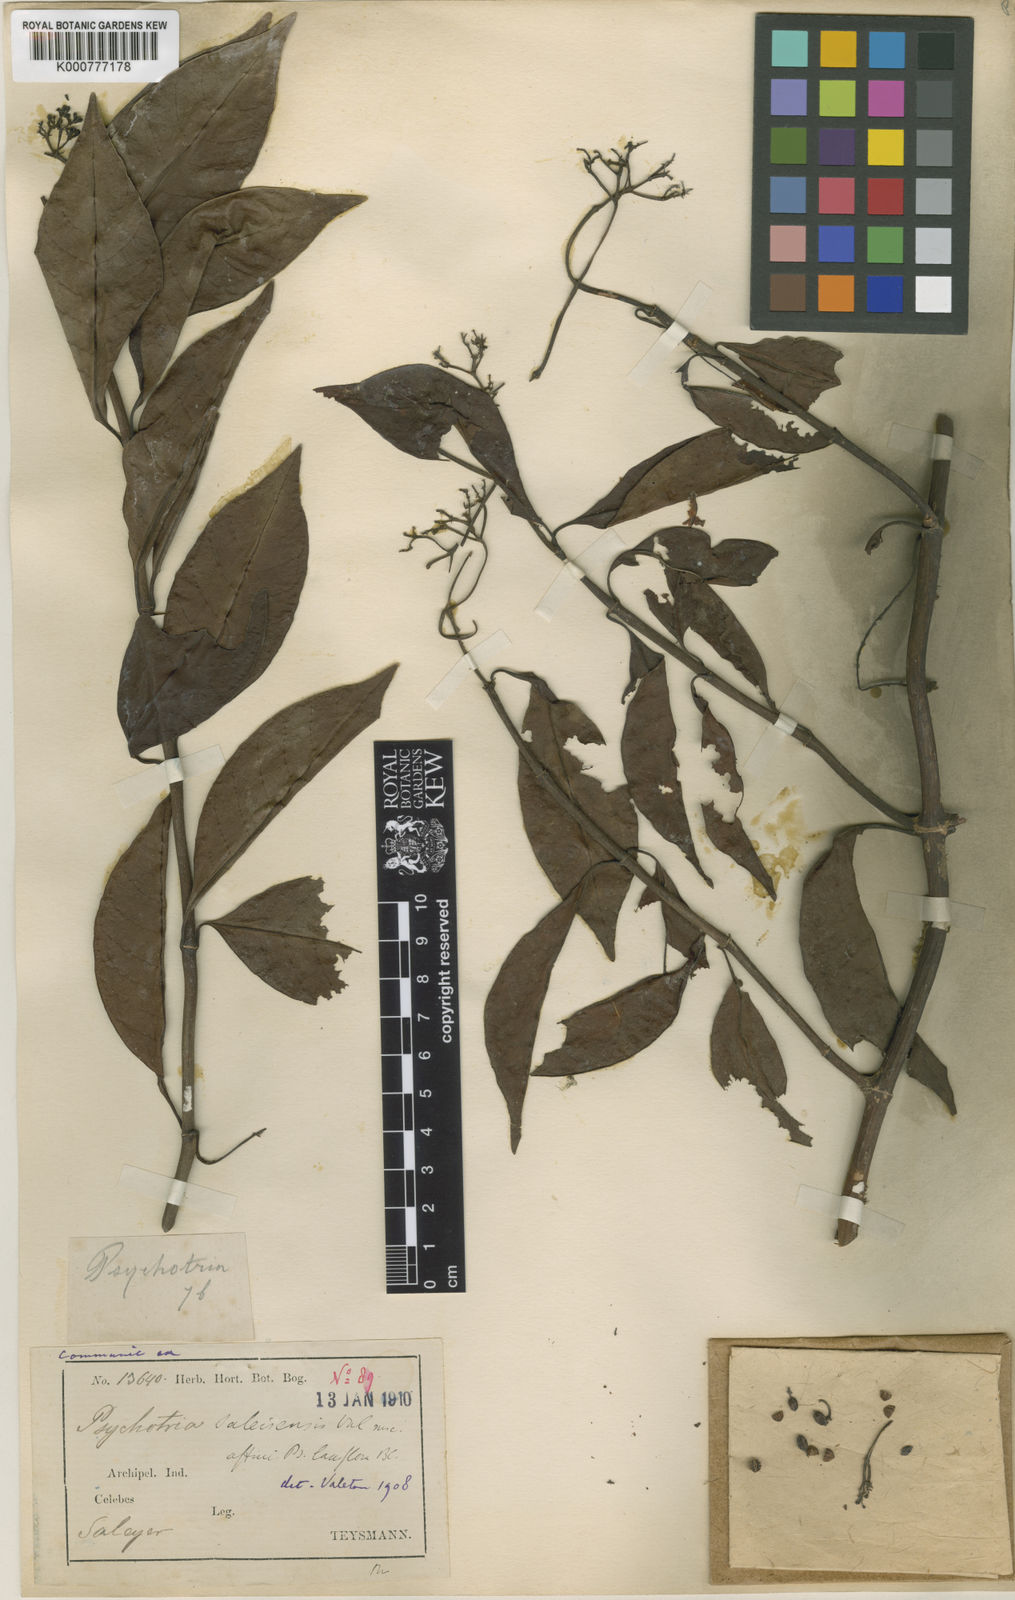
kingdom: Plantae
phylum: Tracheophyta
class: Magnoliopsida
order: Gentianales
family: Rubiaceae
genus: Psychotria
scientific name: Psychotria
